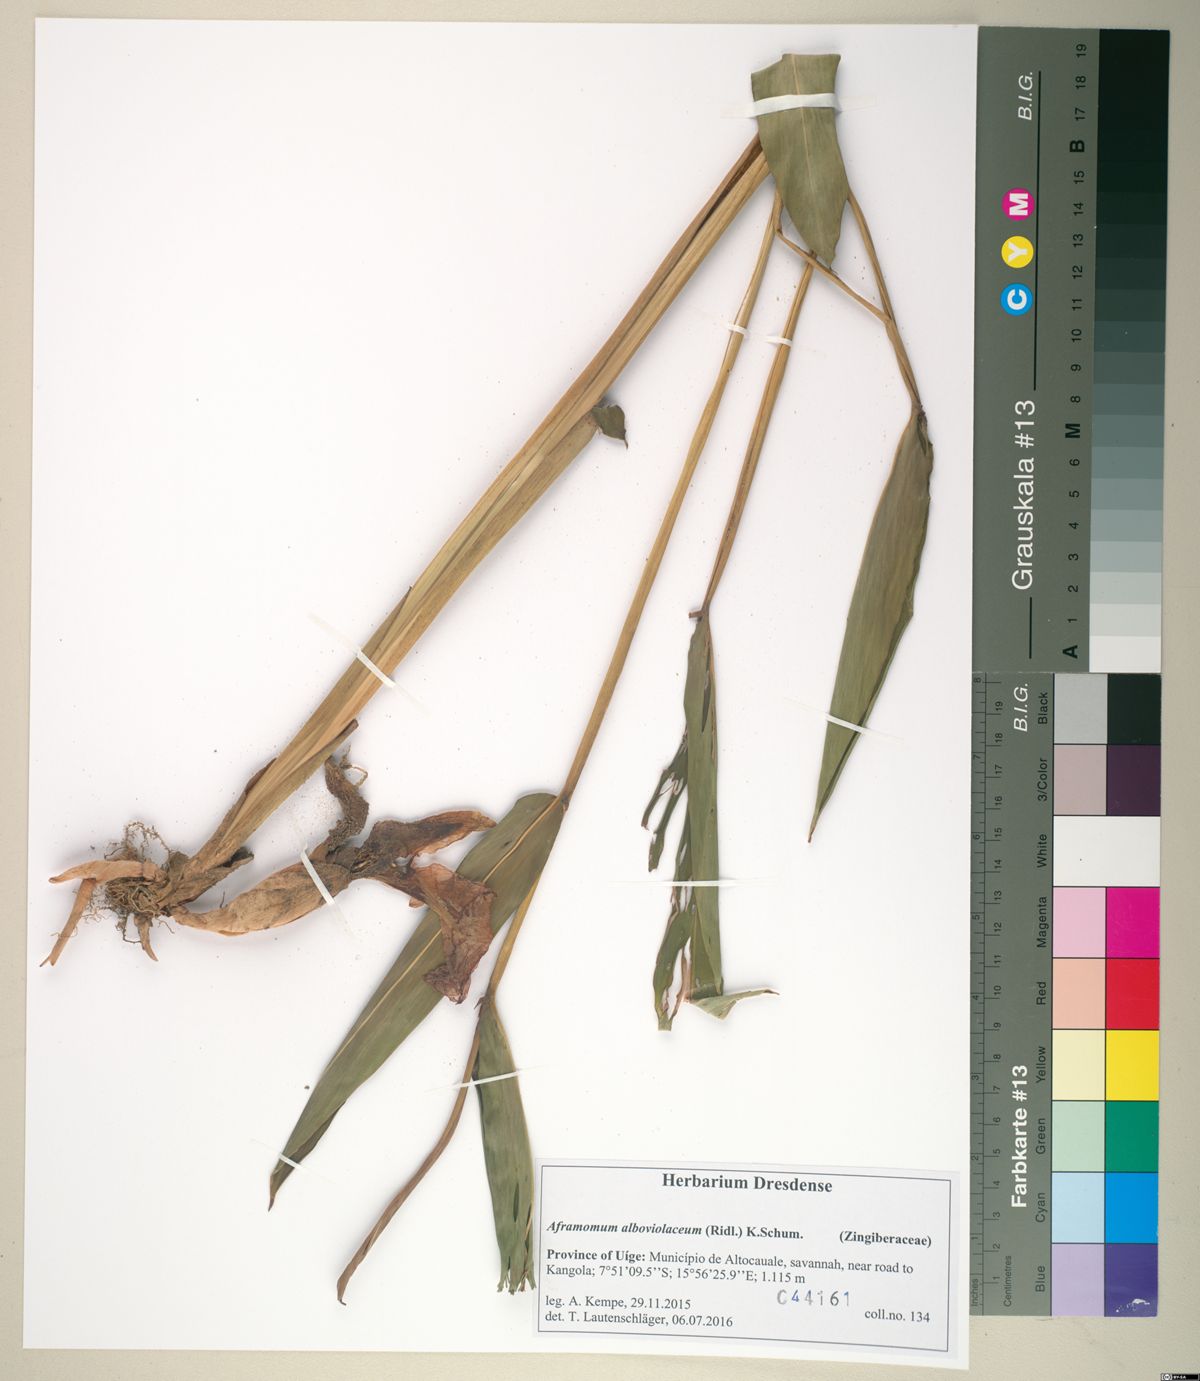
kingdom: Plantae
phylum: Tracheophyta
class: Liliopsida
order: Zingiberales
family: Zingiberaceae
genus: Aframomum
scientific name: Aframomum alboviolaceum
